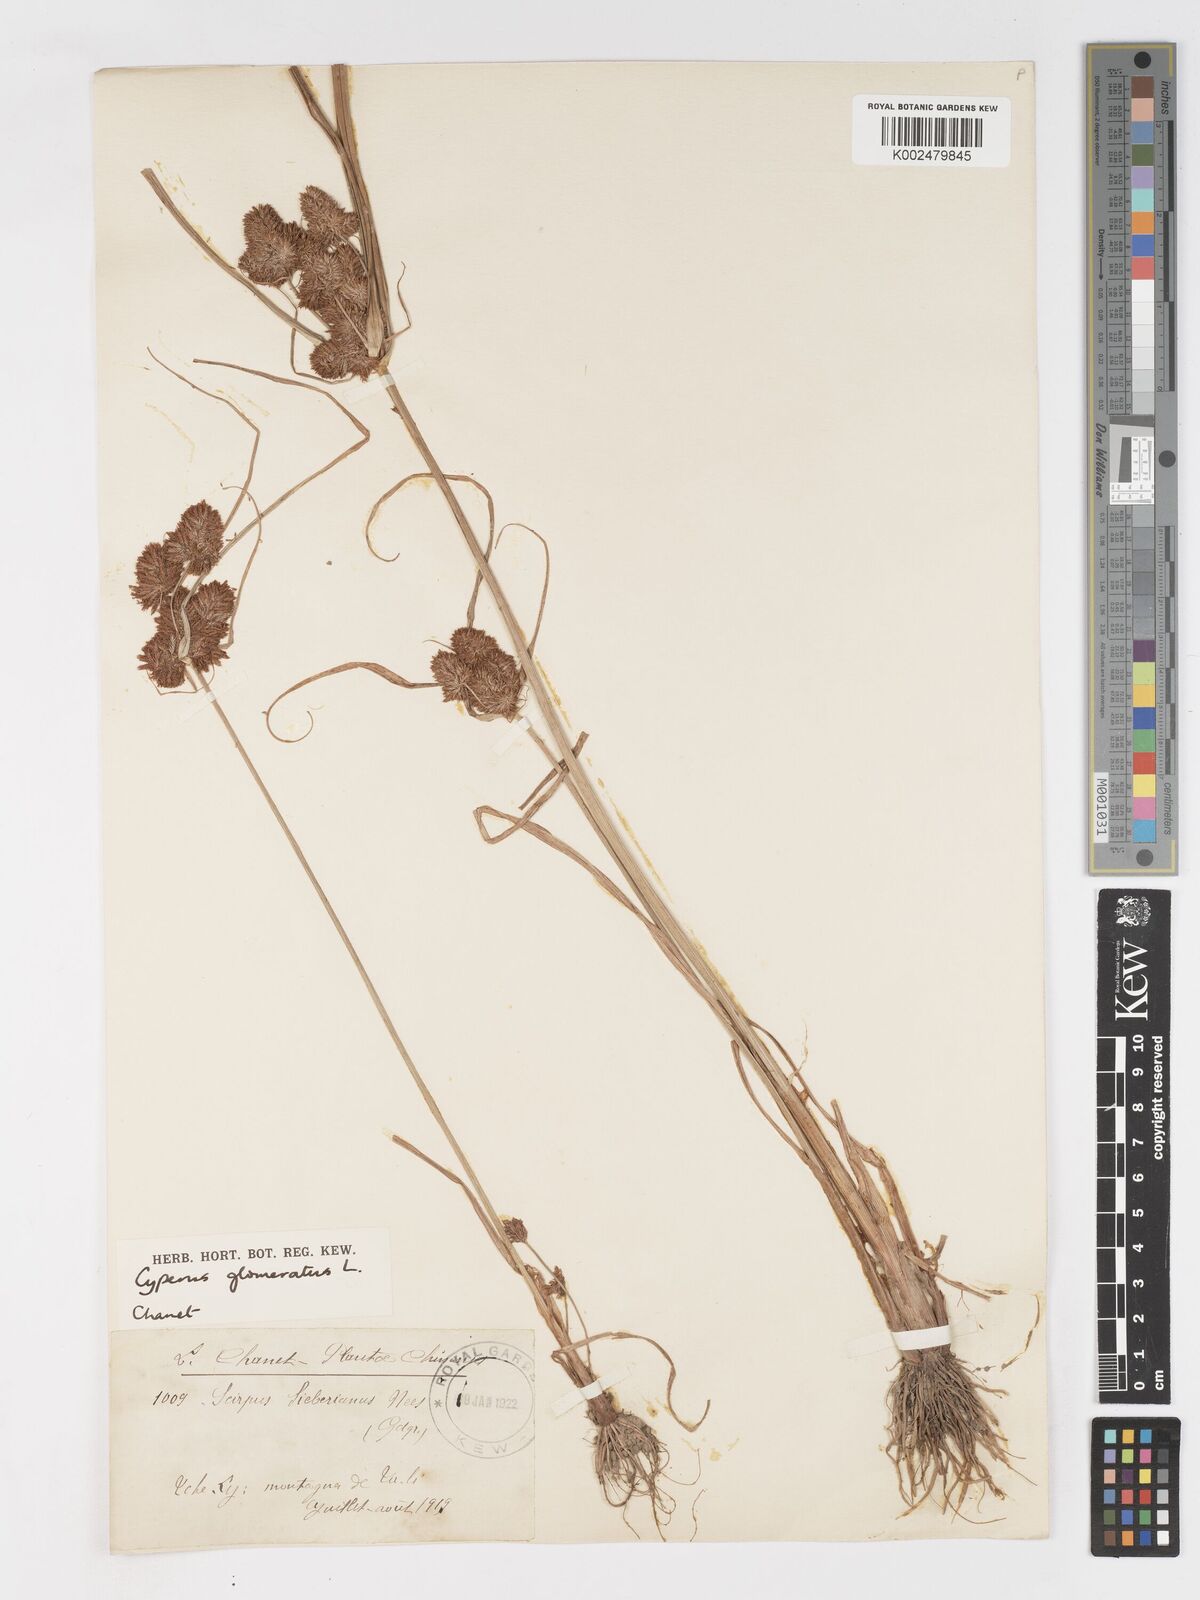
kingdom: Plantae
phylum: Tracheophyta
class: Liliopsida
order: Poales
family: Cyperaceae
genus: Cyperus
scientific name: Cyperus glomeratus
